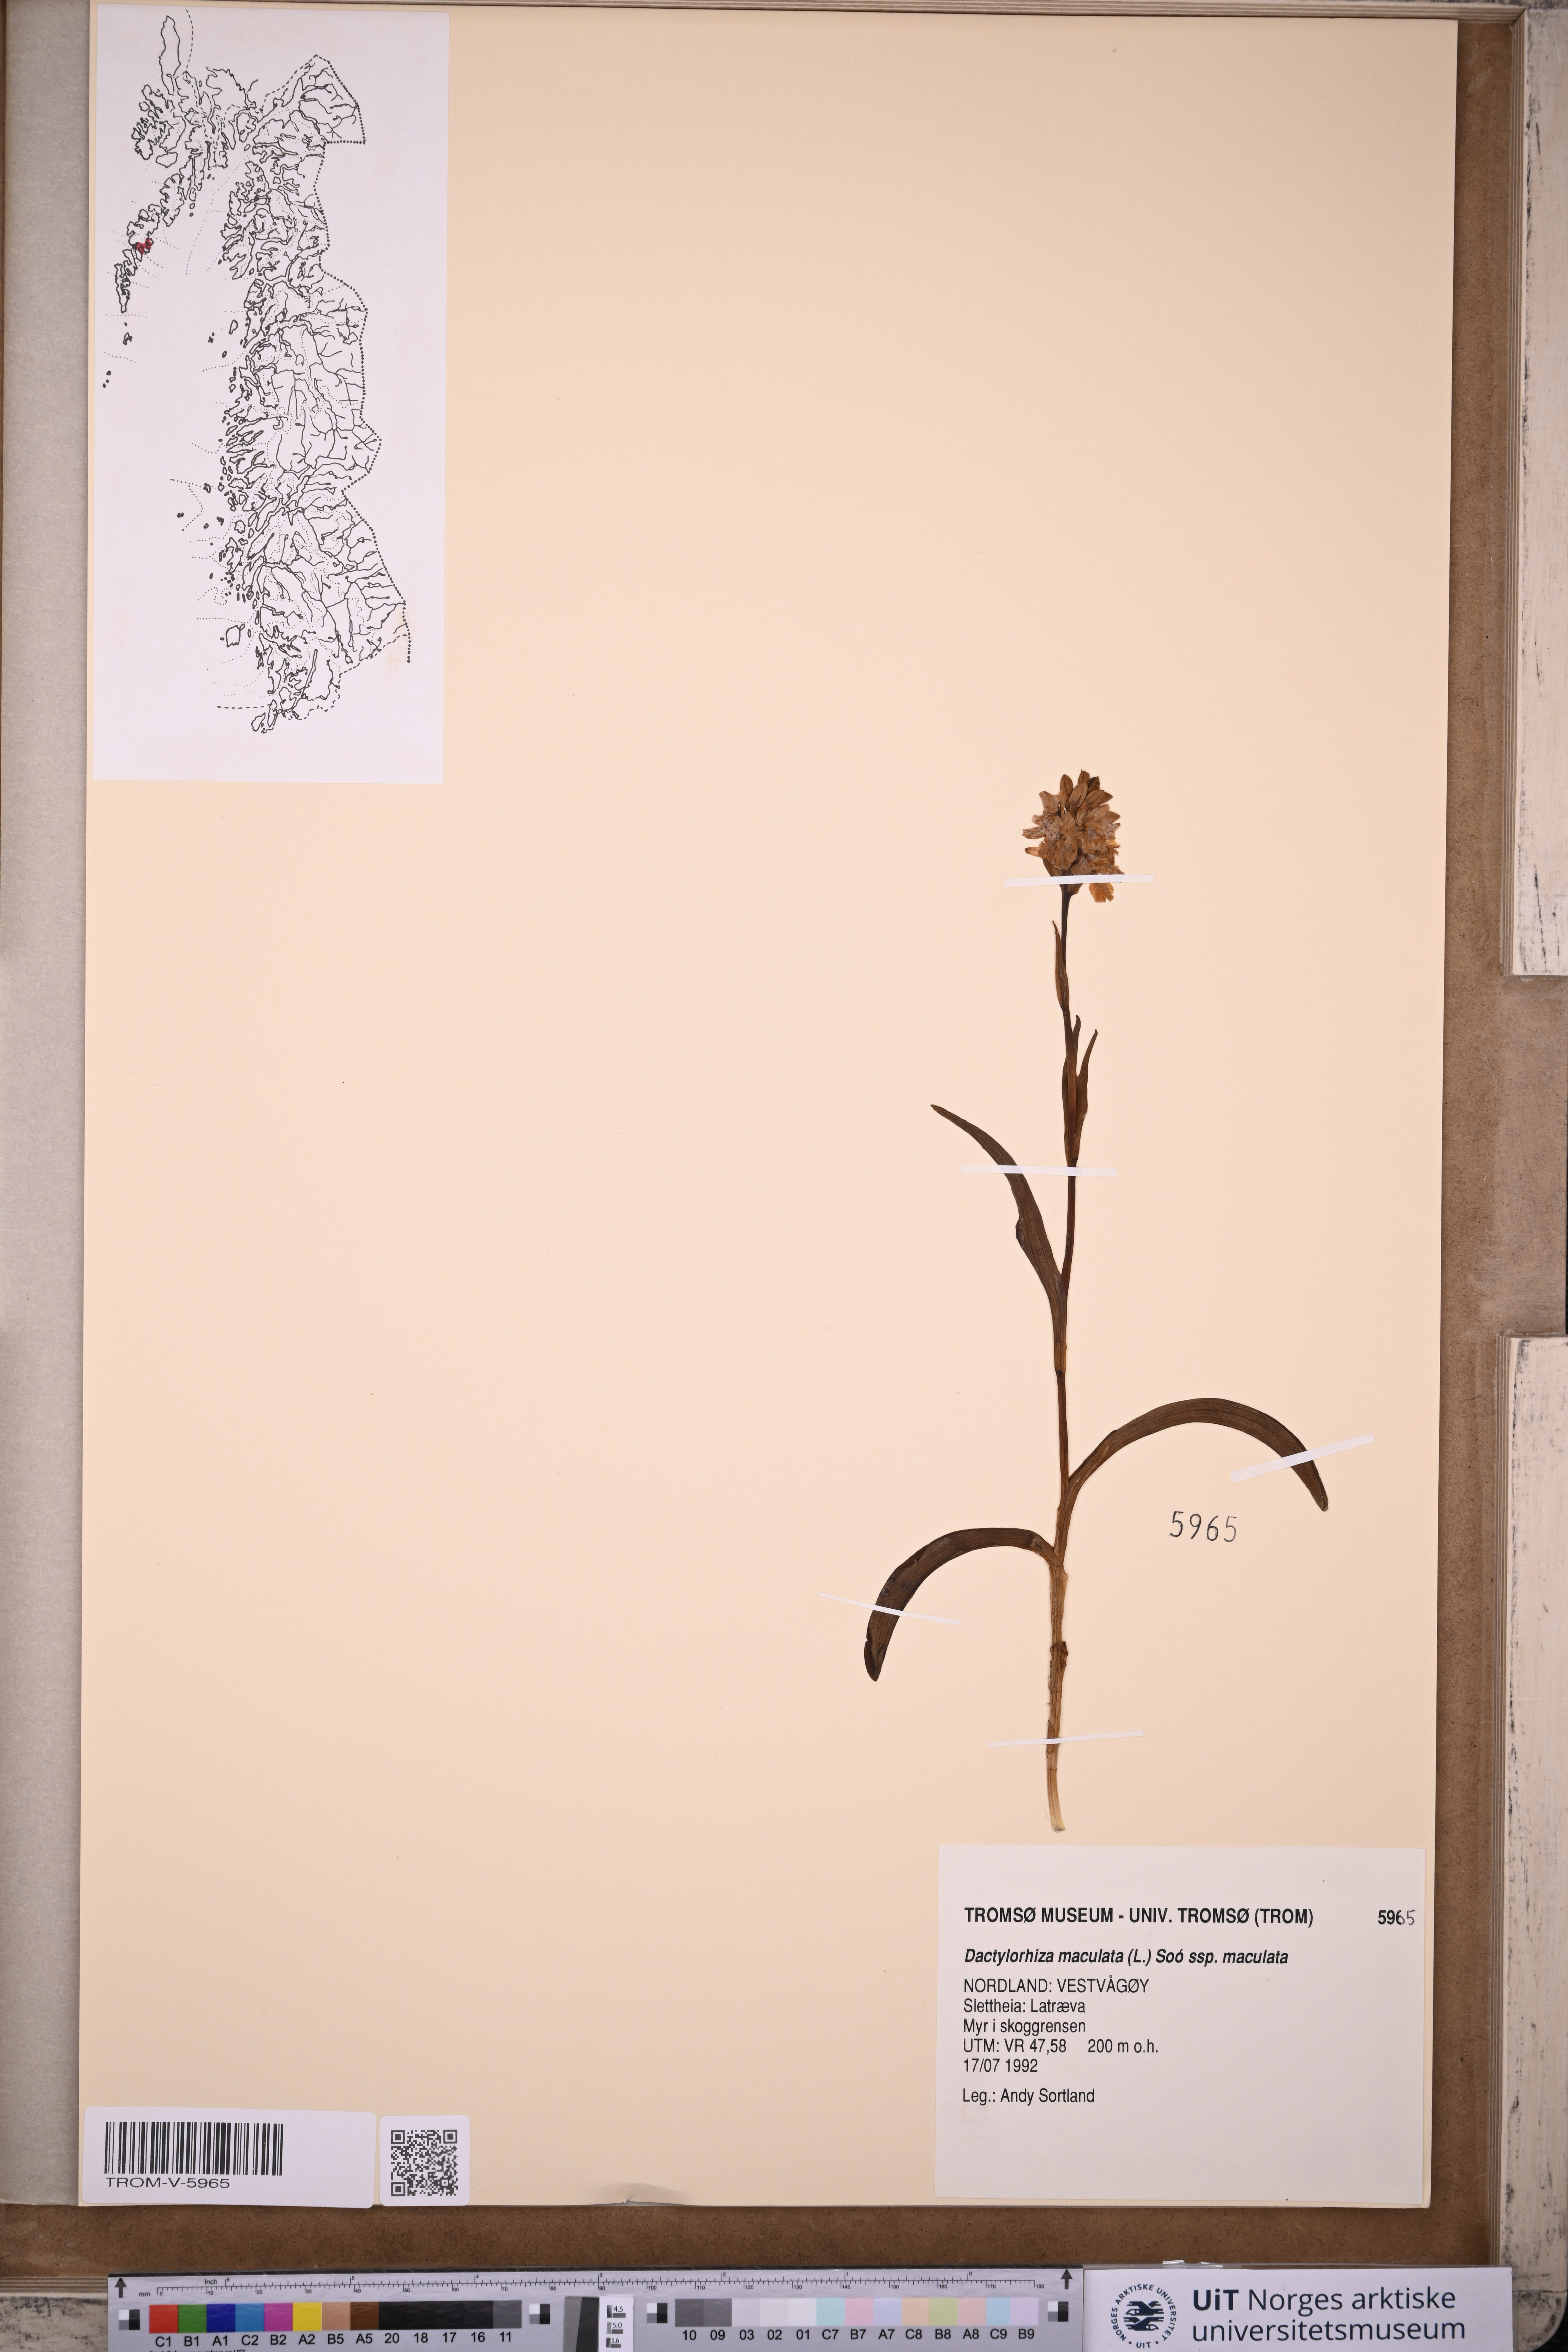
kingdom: Plantae
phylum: Tracheophyta
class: Liliopsida
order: Asparagales
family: Orchidaceae
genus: Dactylorhiza
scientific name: Dactylorhiza maculata
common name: Heath spotted-orchid
